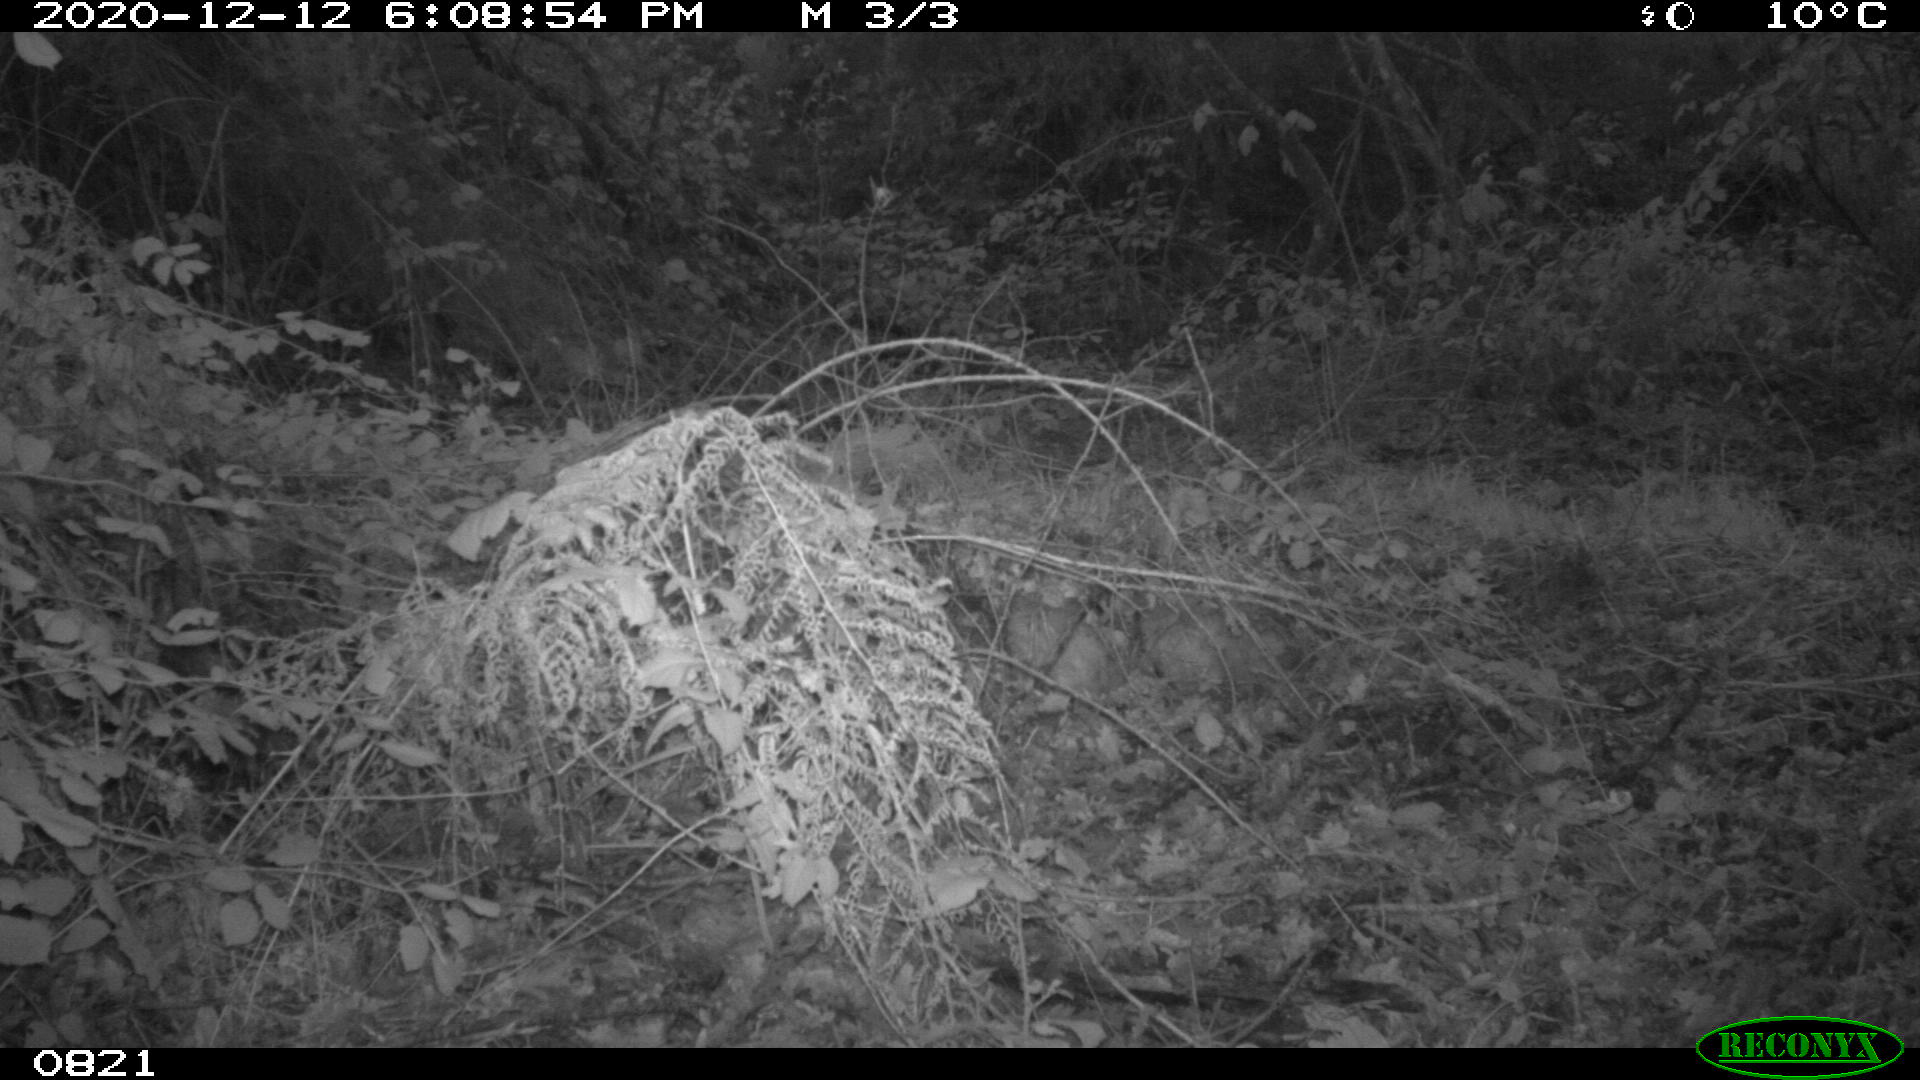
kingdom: Animalia
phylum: Chordata
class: Mammalia
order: Artiodactyla
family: Bovidae
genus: Bos
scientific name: Bos taurus
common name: Domesticated cattle
